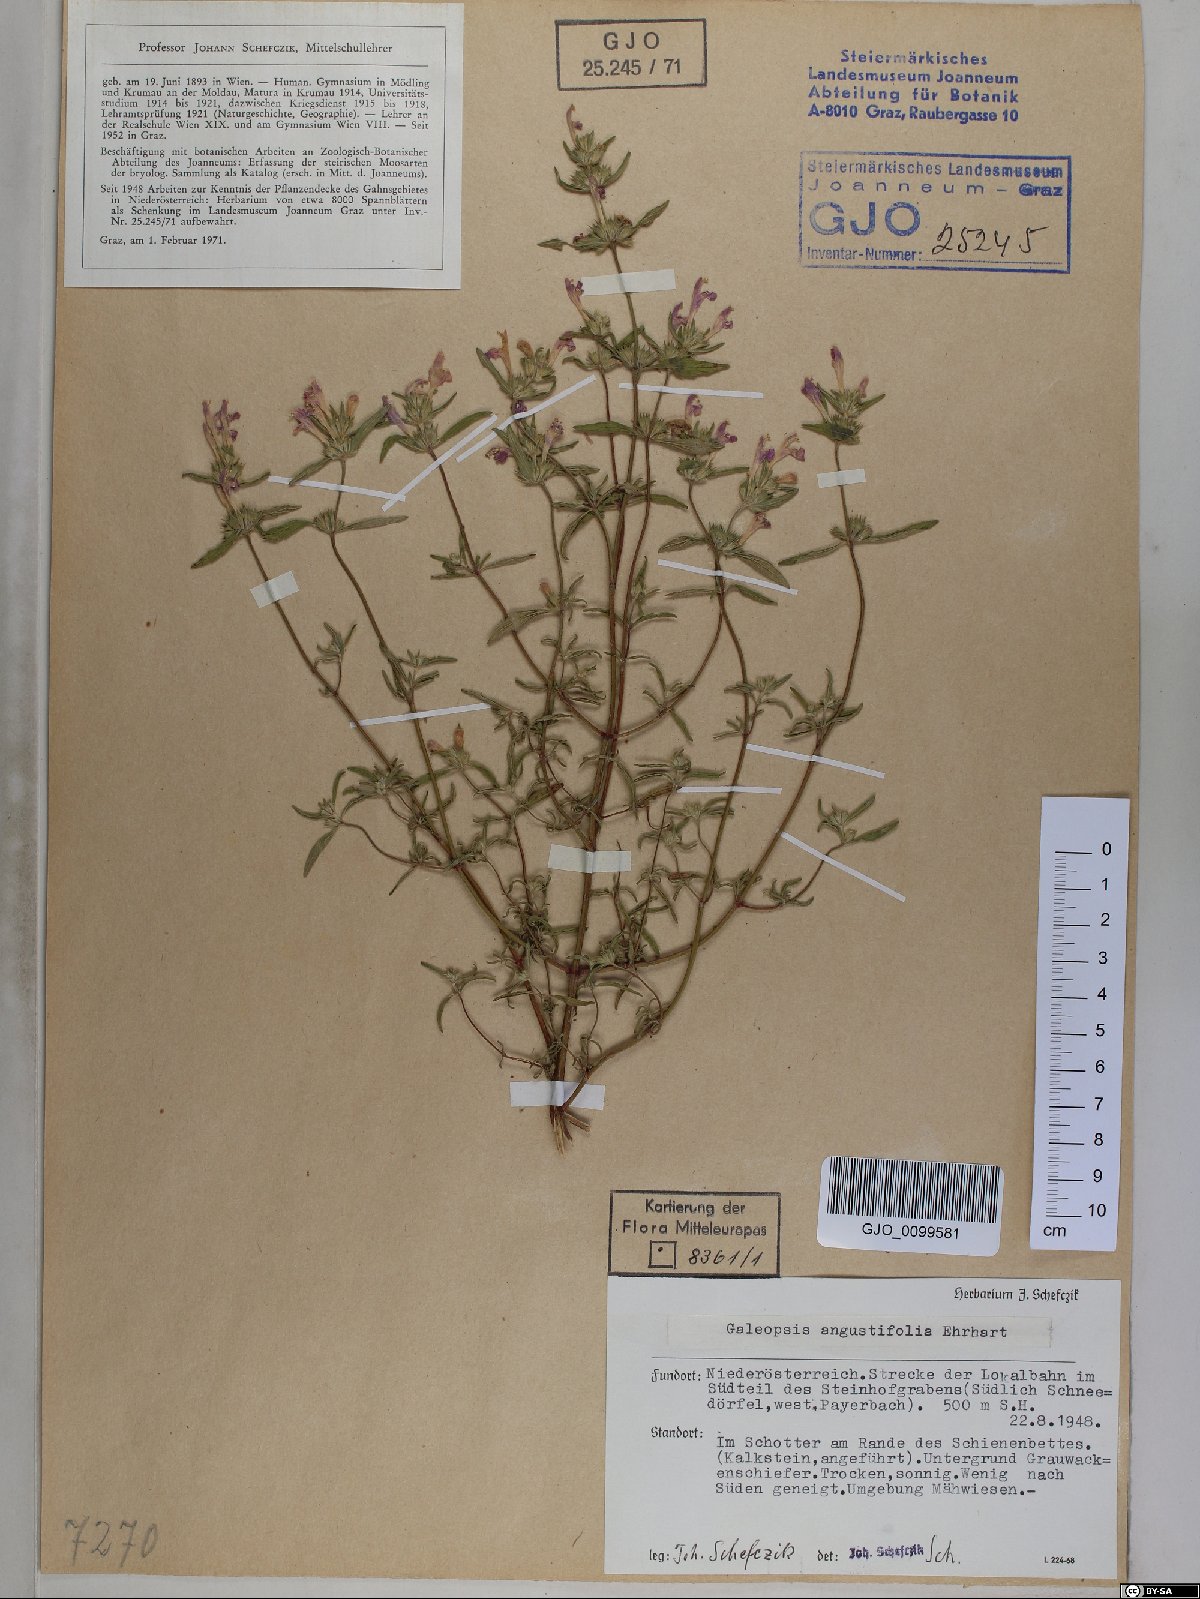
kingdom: Plantae
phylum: Tracheophyta
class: Magnoliopsida
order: Lamiales
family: Lamiaceae
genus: Galeopsis
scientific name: Galeopsis angustifolia
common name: Red hemp-nettle
